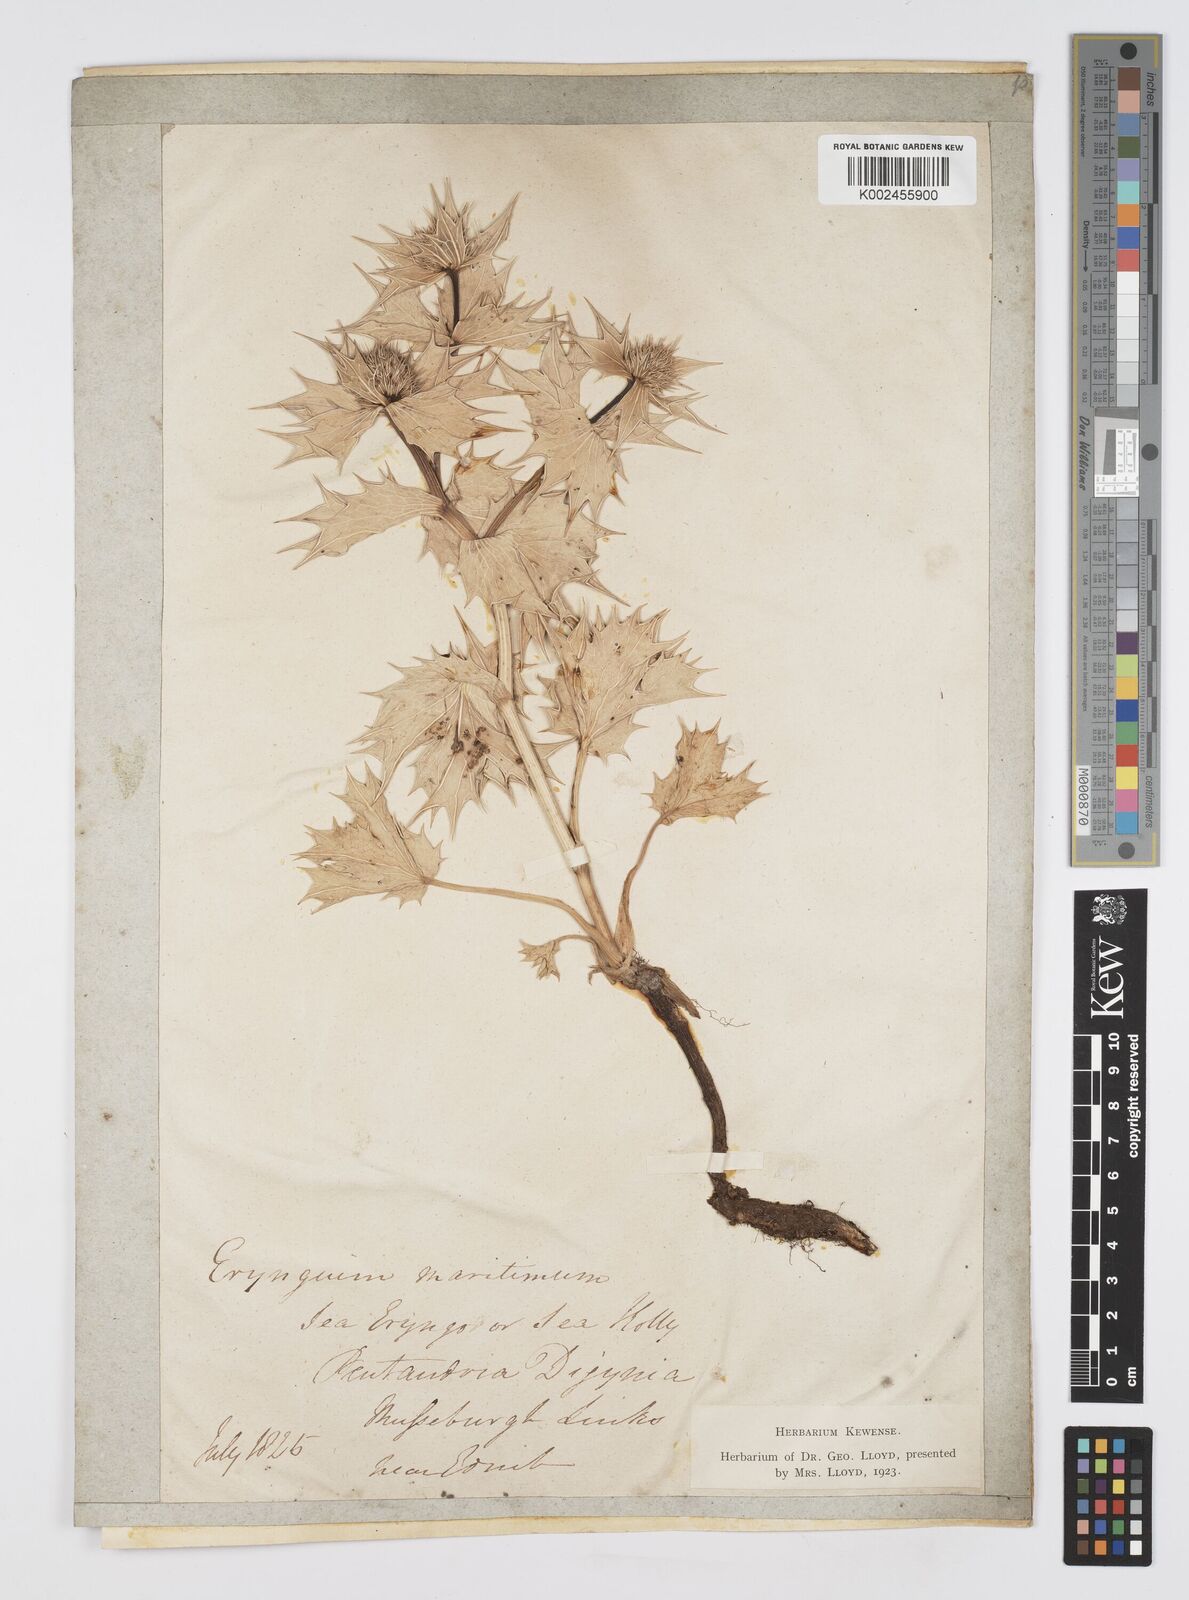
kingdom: Plantae
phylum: Tracheophyta
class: Magnoliopsida
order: Apiales
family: Apiaceae
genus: Eryngium
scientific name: Eryngium maritimum
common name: Sea-holly
